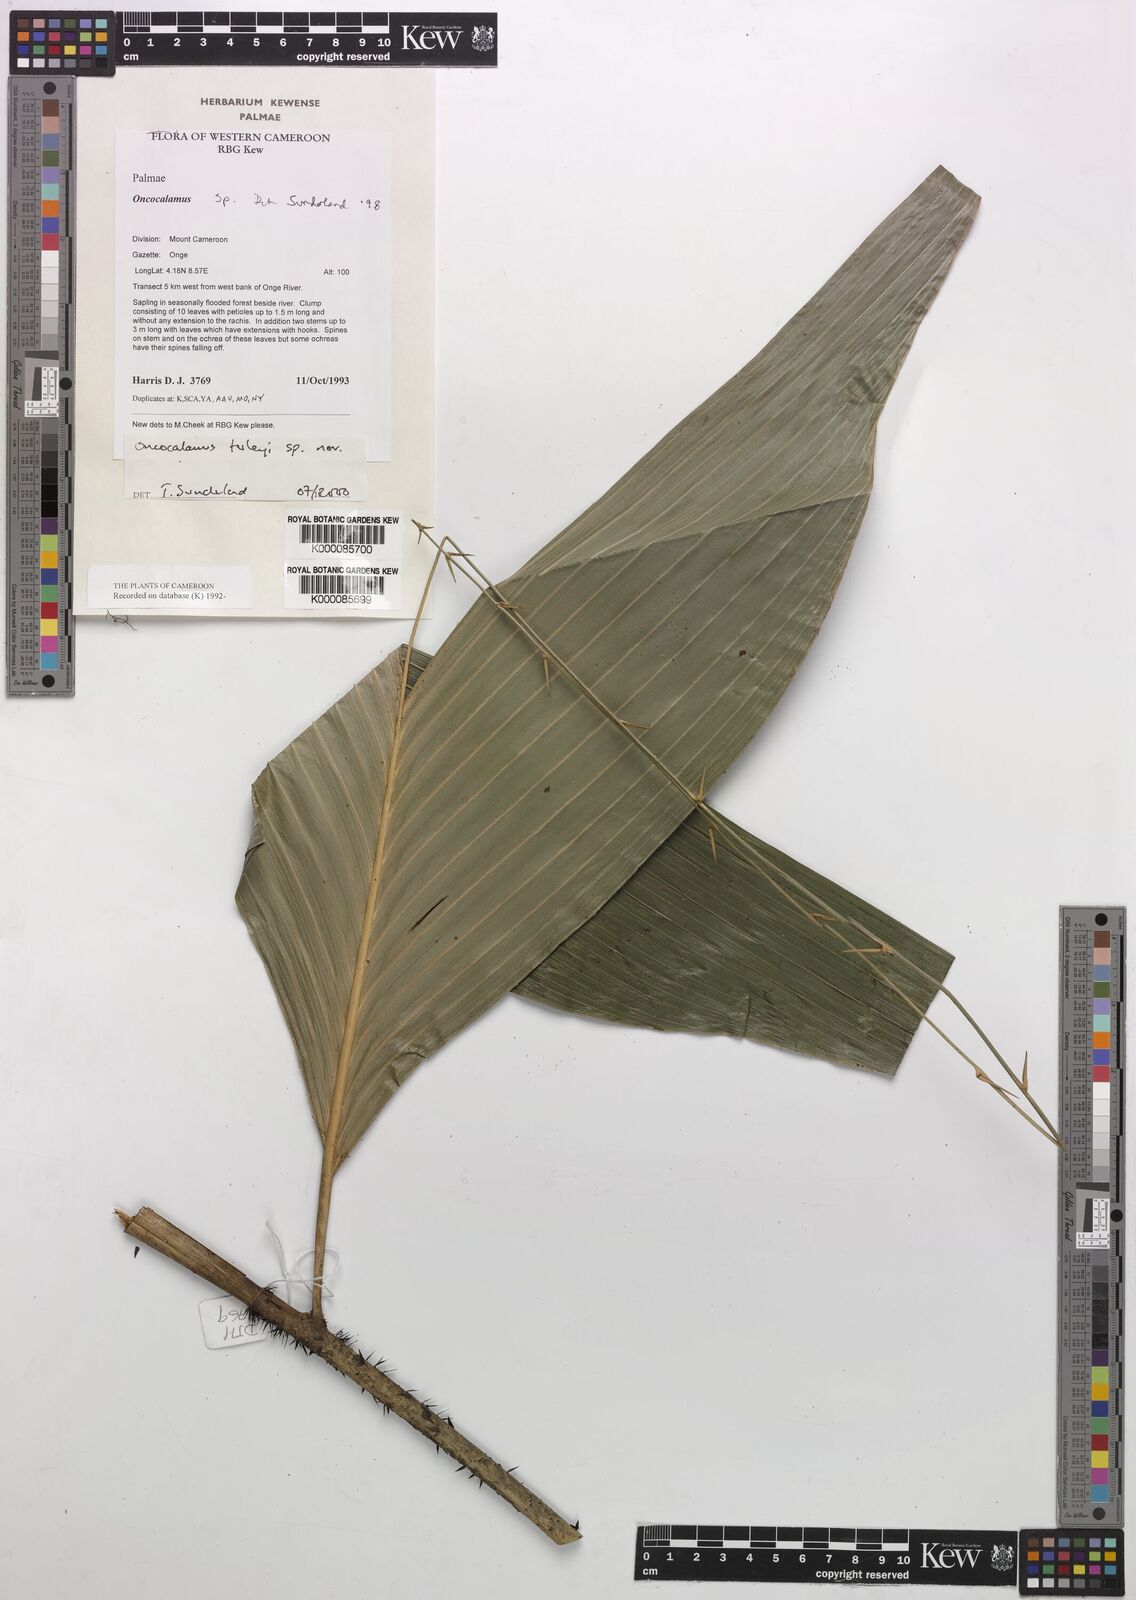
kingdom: Plantae
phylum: Tracheophyta
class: Liliopsida
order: Arecales
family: Arecaceae
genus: Oncocalamus
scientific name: Oncocalamus tuleyi
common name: Rattan
